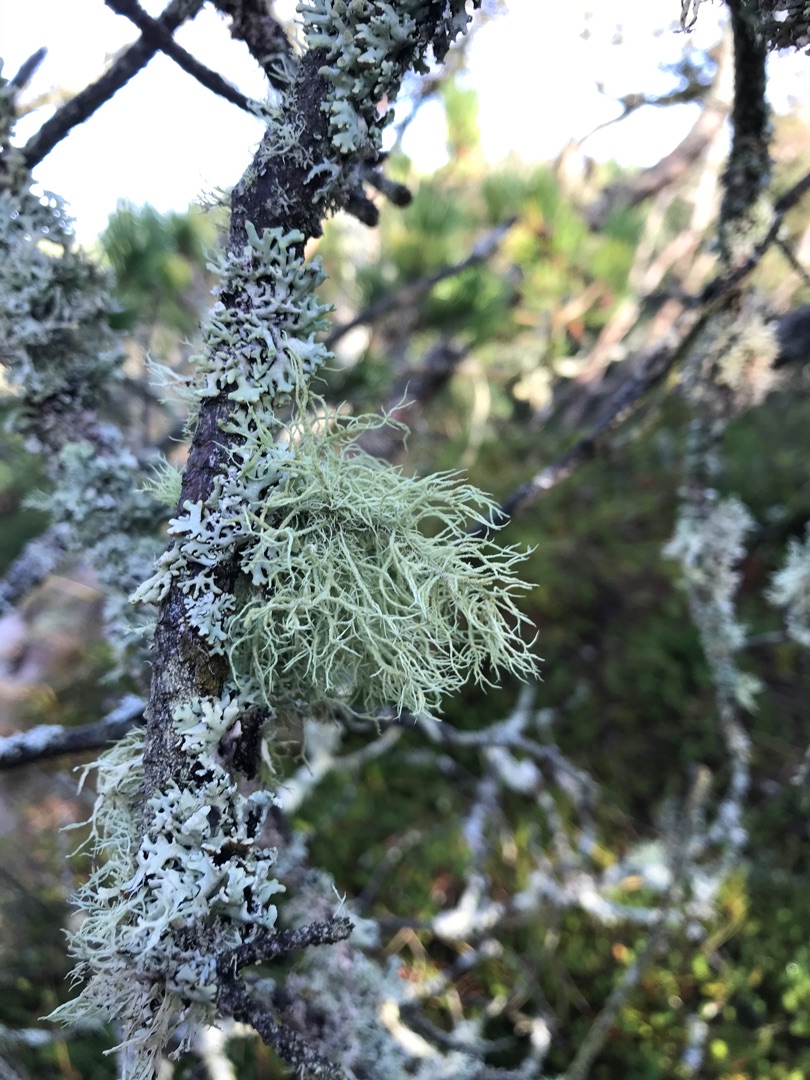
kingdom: Fungi
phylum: Ascomycota
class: Lecanoromycetes
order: Lecanorales
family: Parmeliaceae
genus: Evernia
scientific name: Evernia prunastri
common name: Almindelig slåenlav
